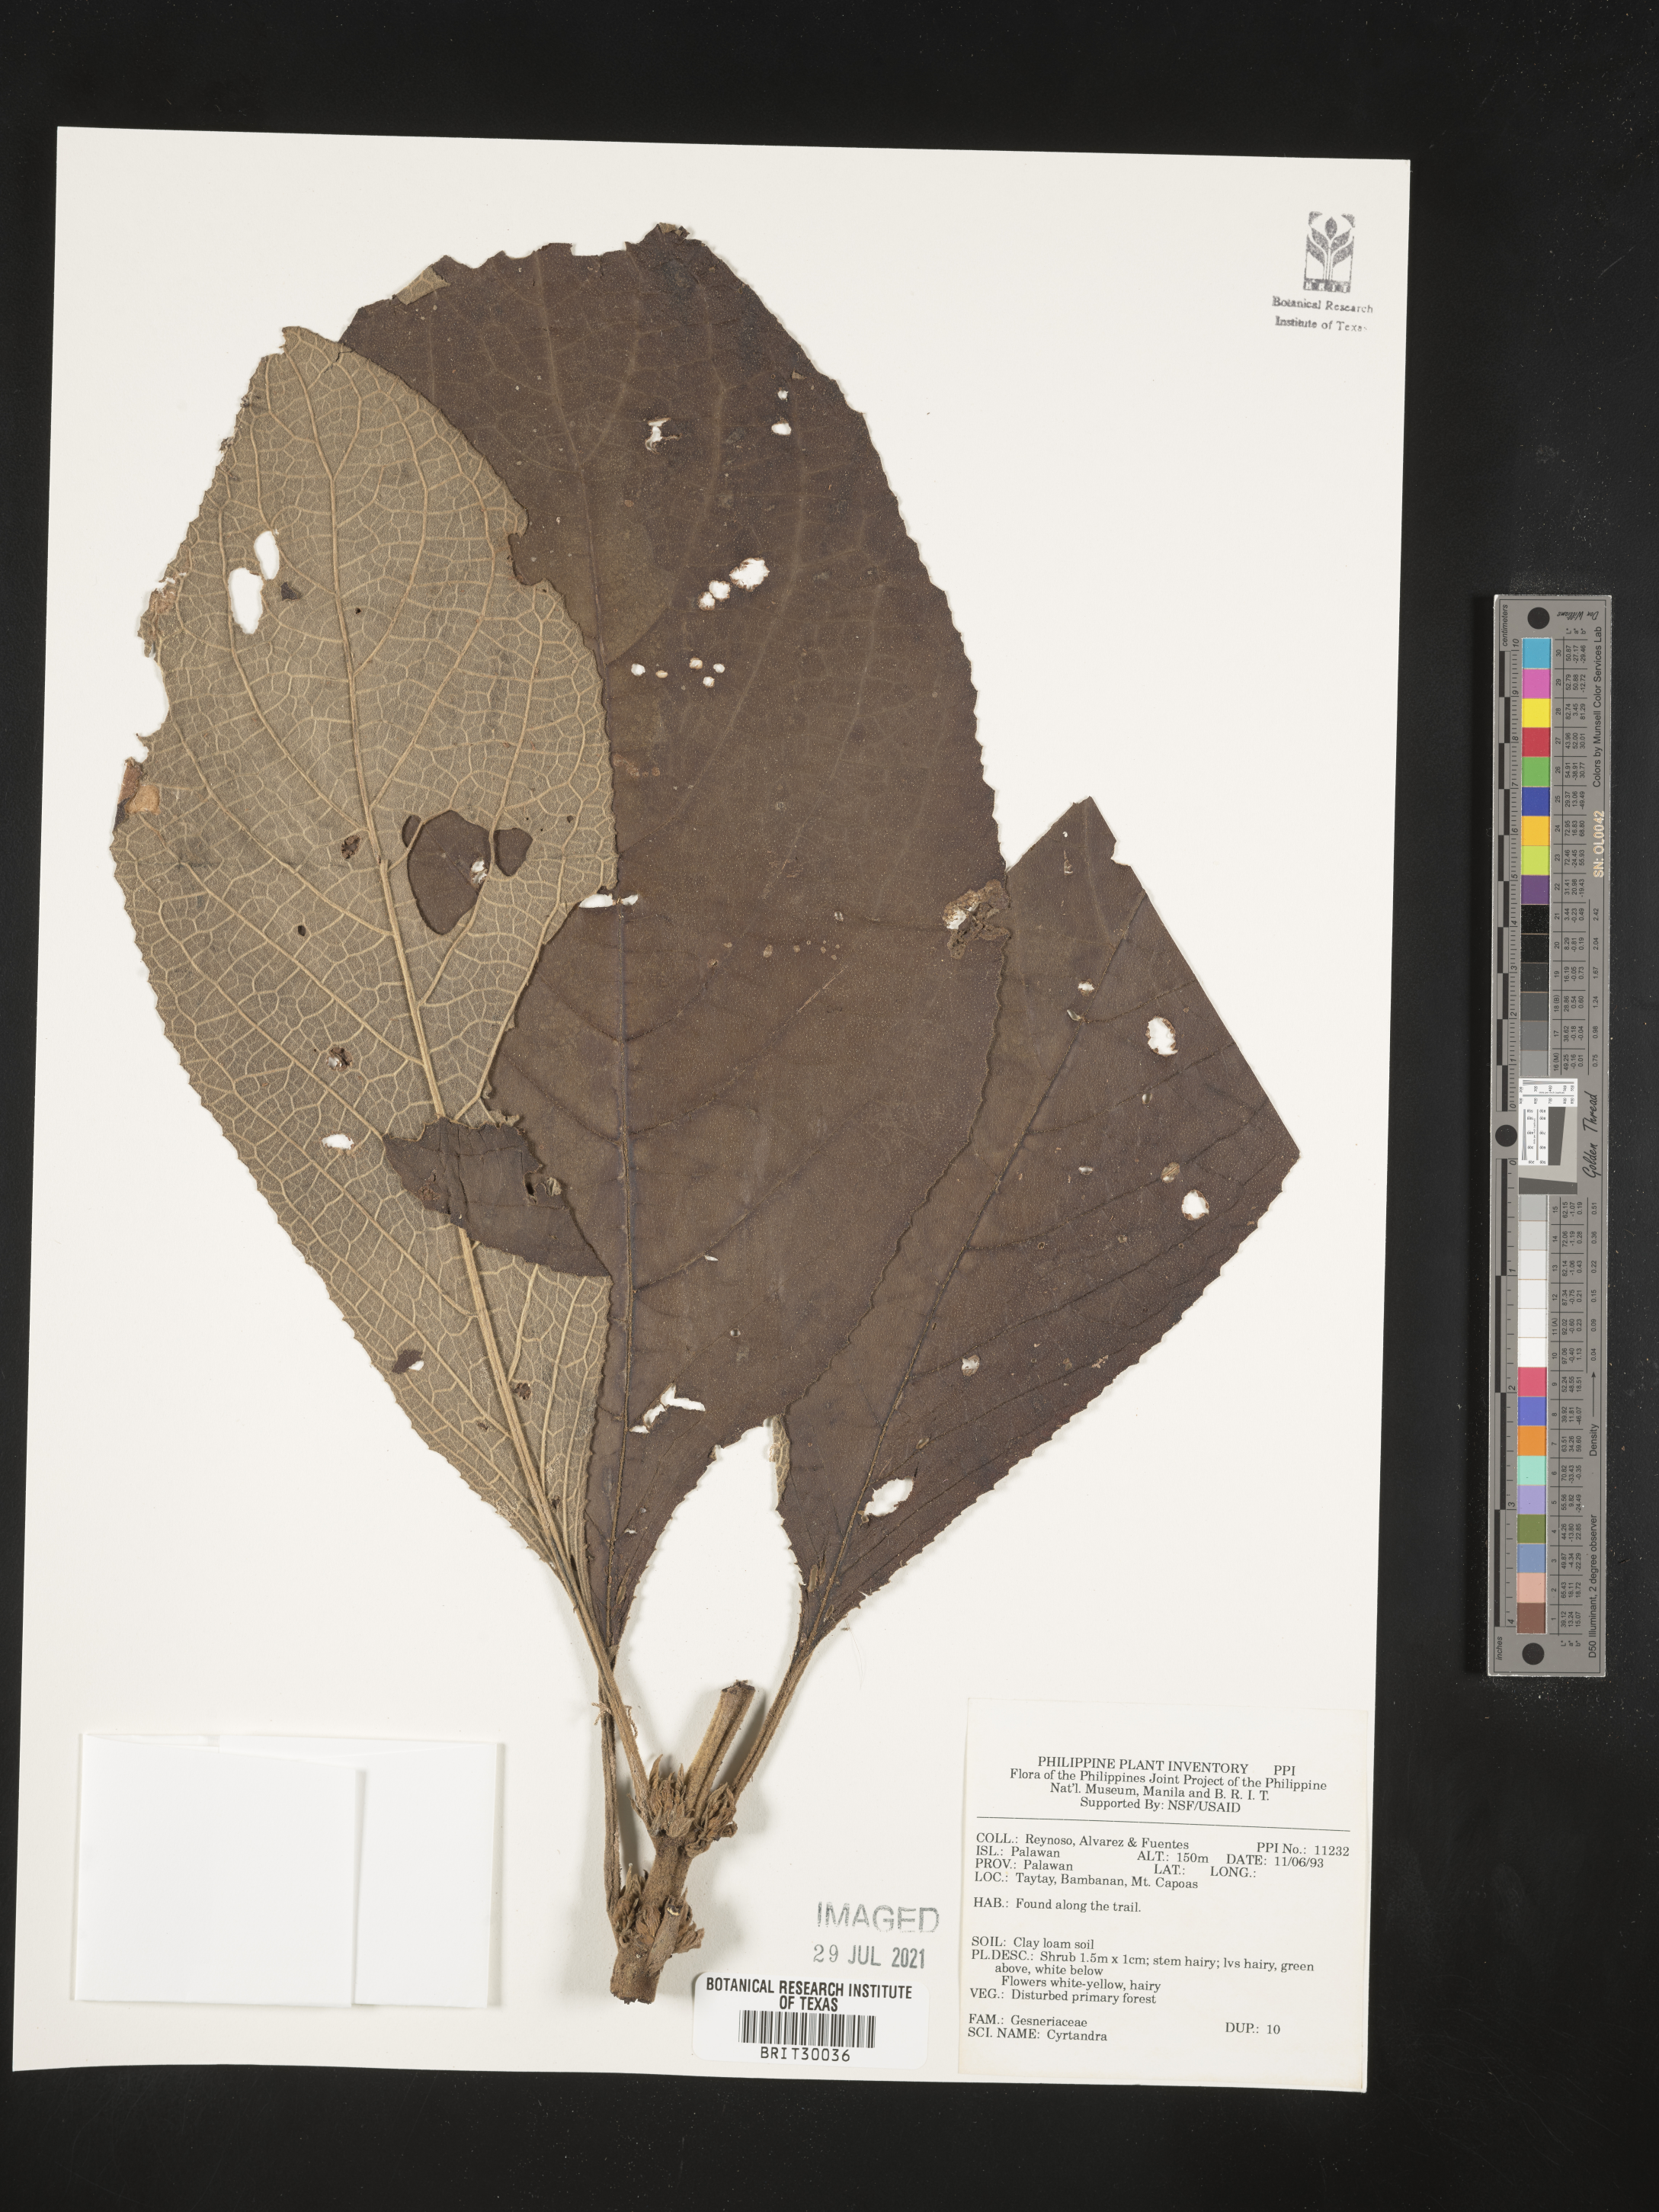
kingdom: Plantae
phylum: Tracheophyta
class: Magnoliopsida
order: Lamiales
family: Gesneriaceae
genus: Cyrtandra
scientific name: Cyrtandra
